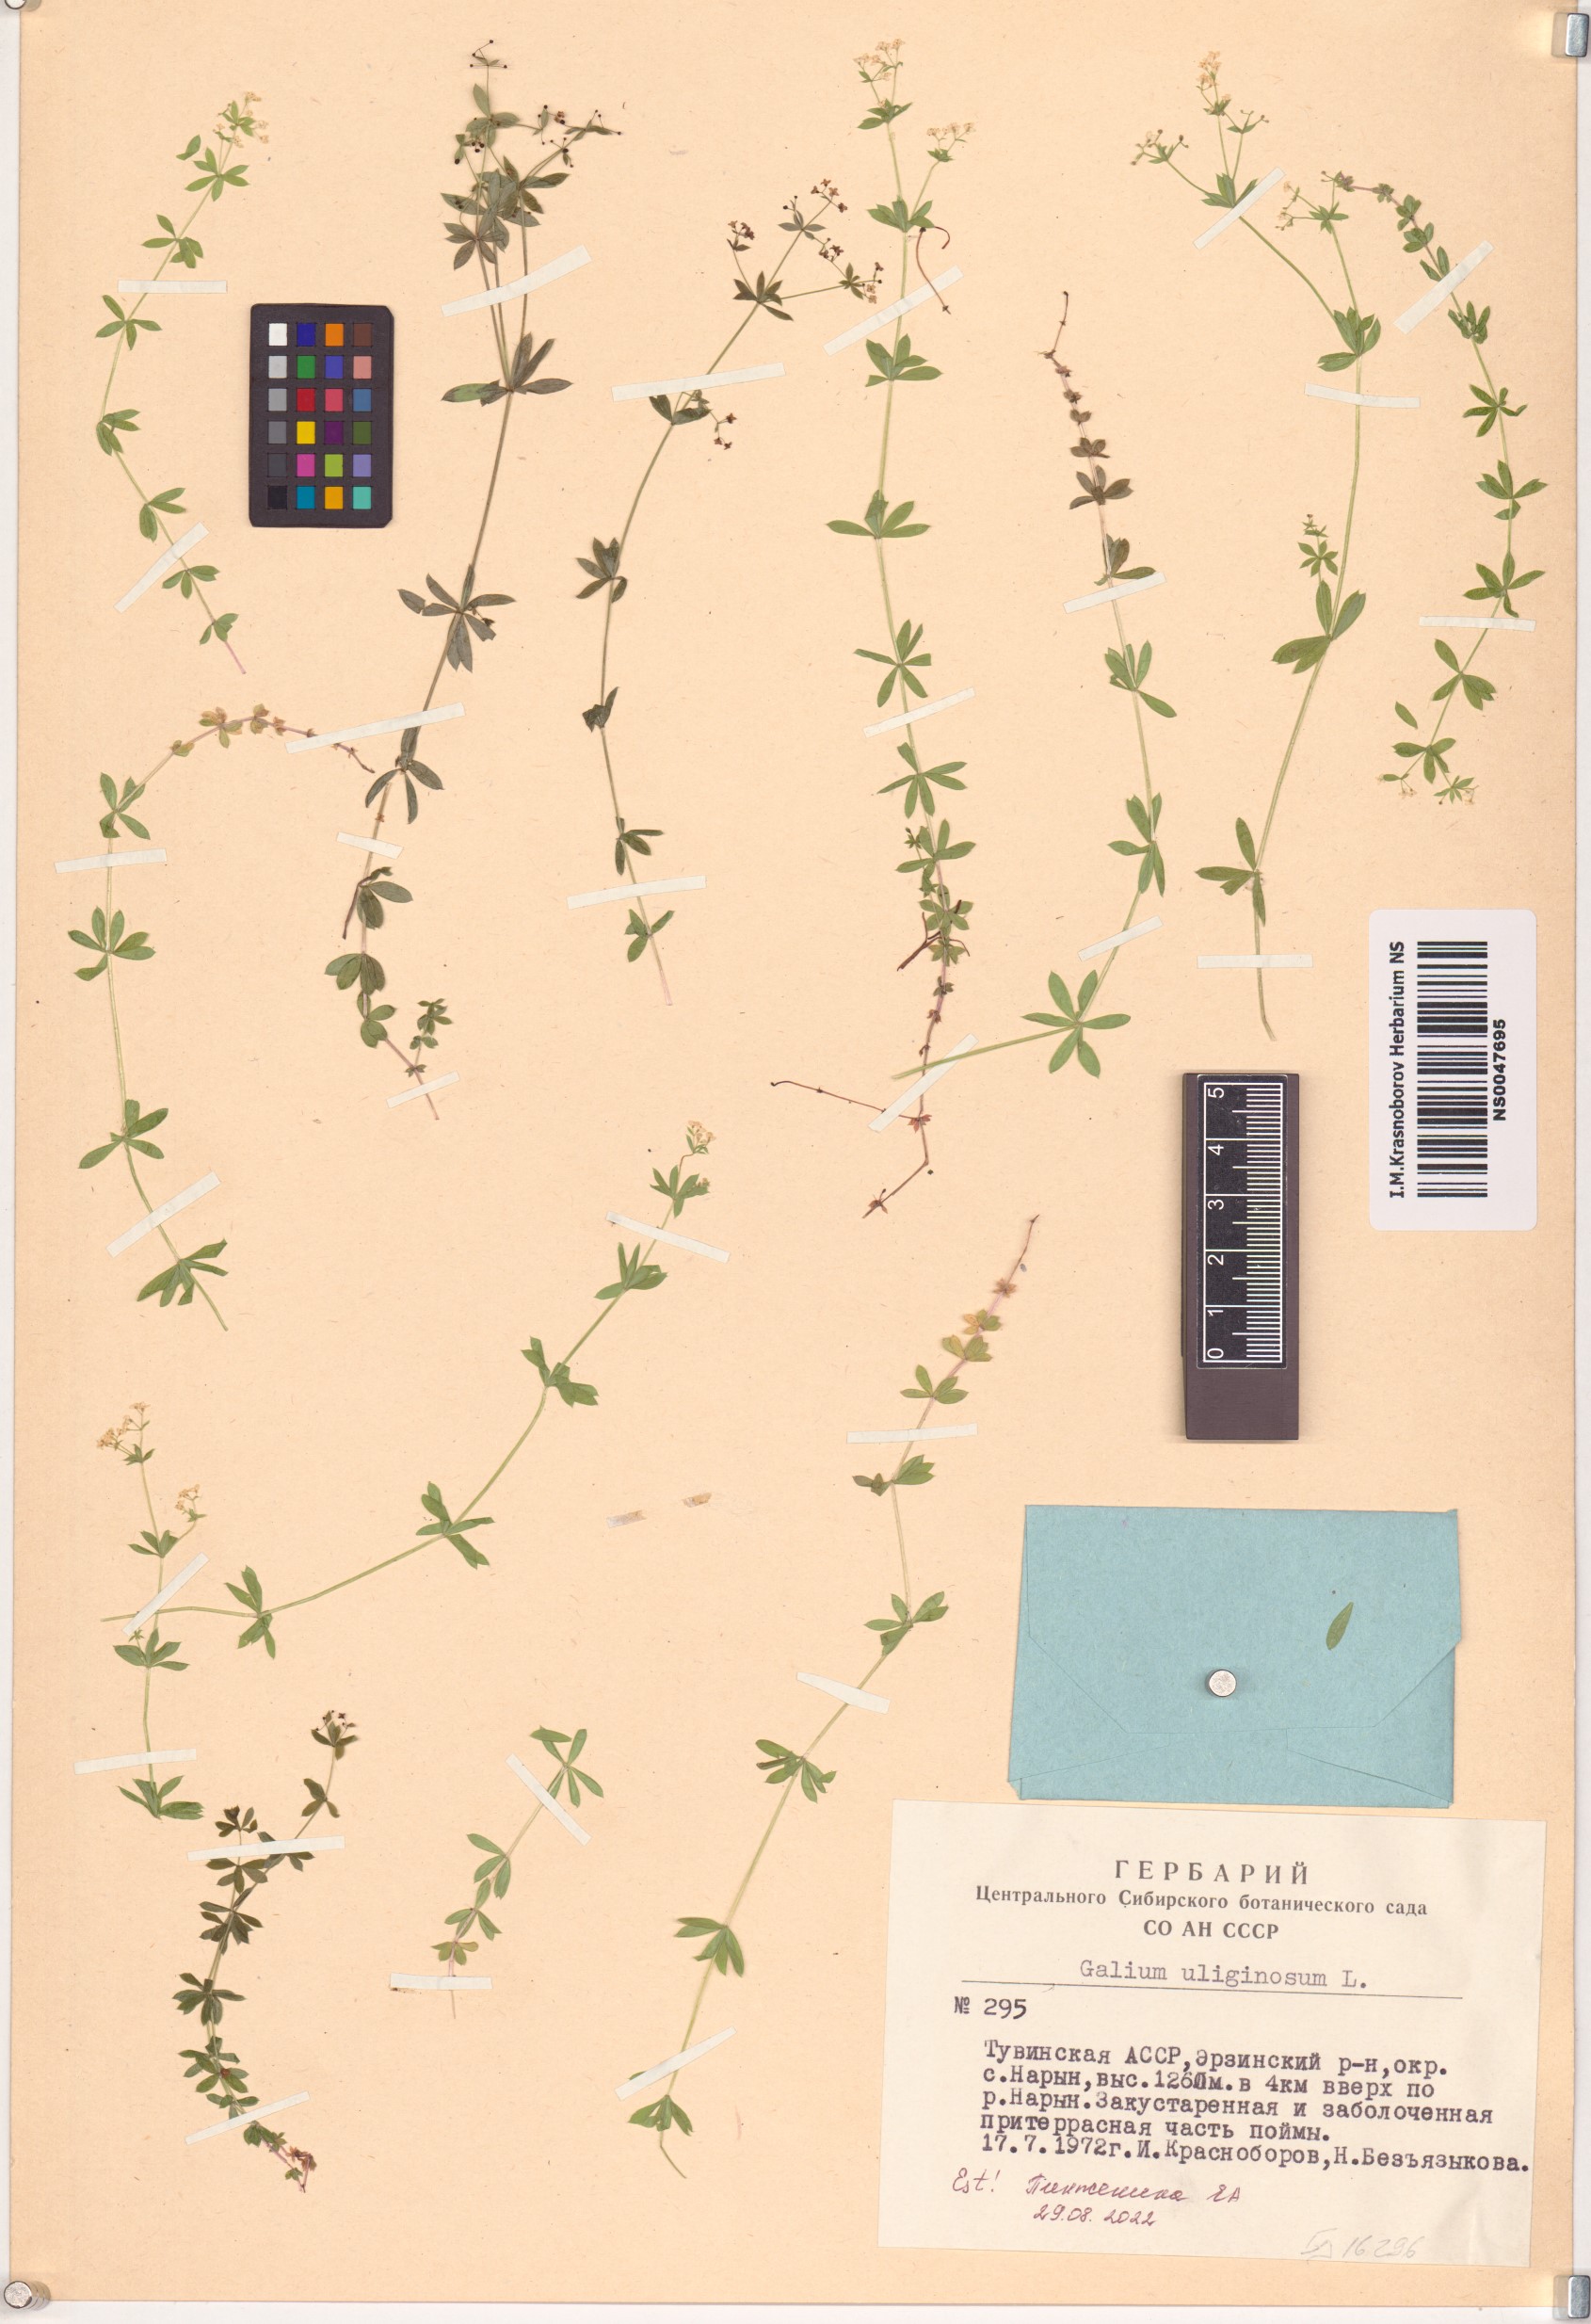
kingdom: Plantae
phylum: Tracheophyta
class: Magnoliopsida
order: Gentianales
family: Rubiaceae
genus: Galium
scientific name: Galium uliginosum
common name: Fen bedstraw
